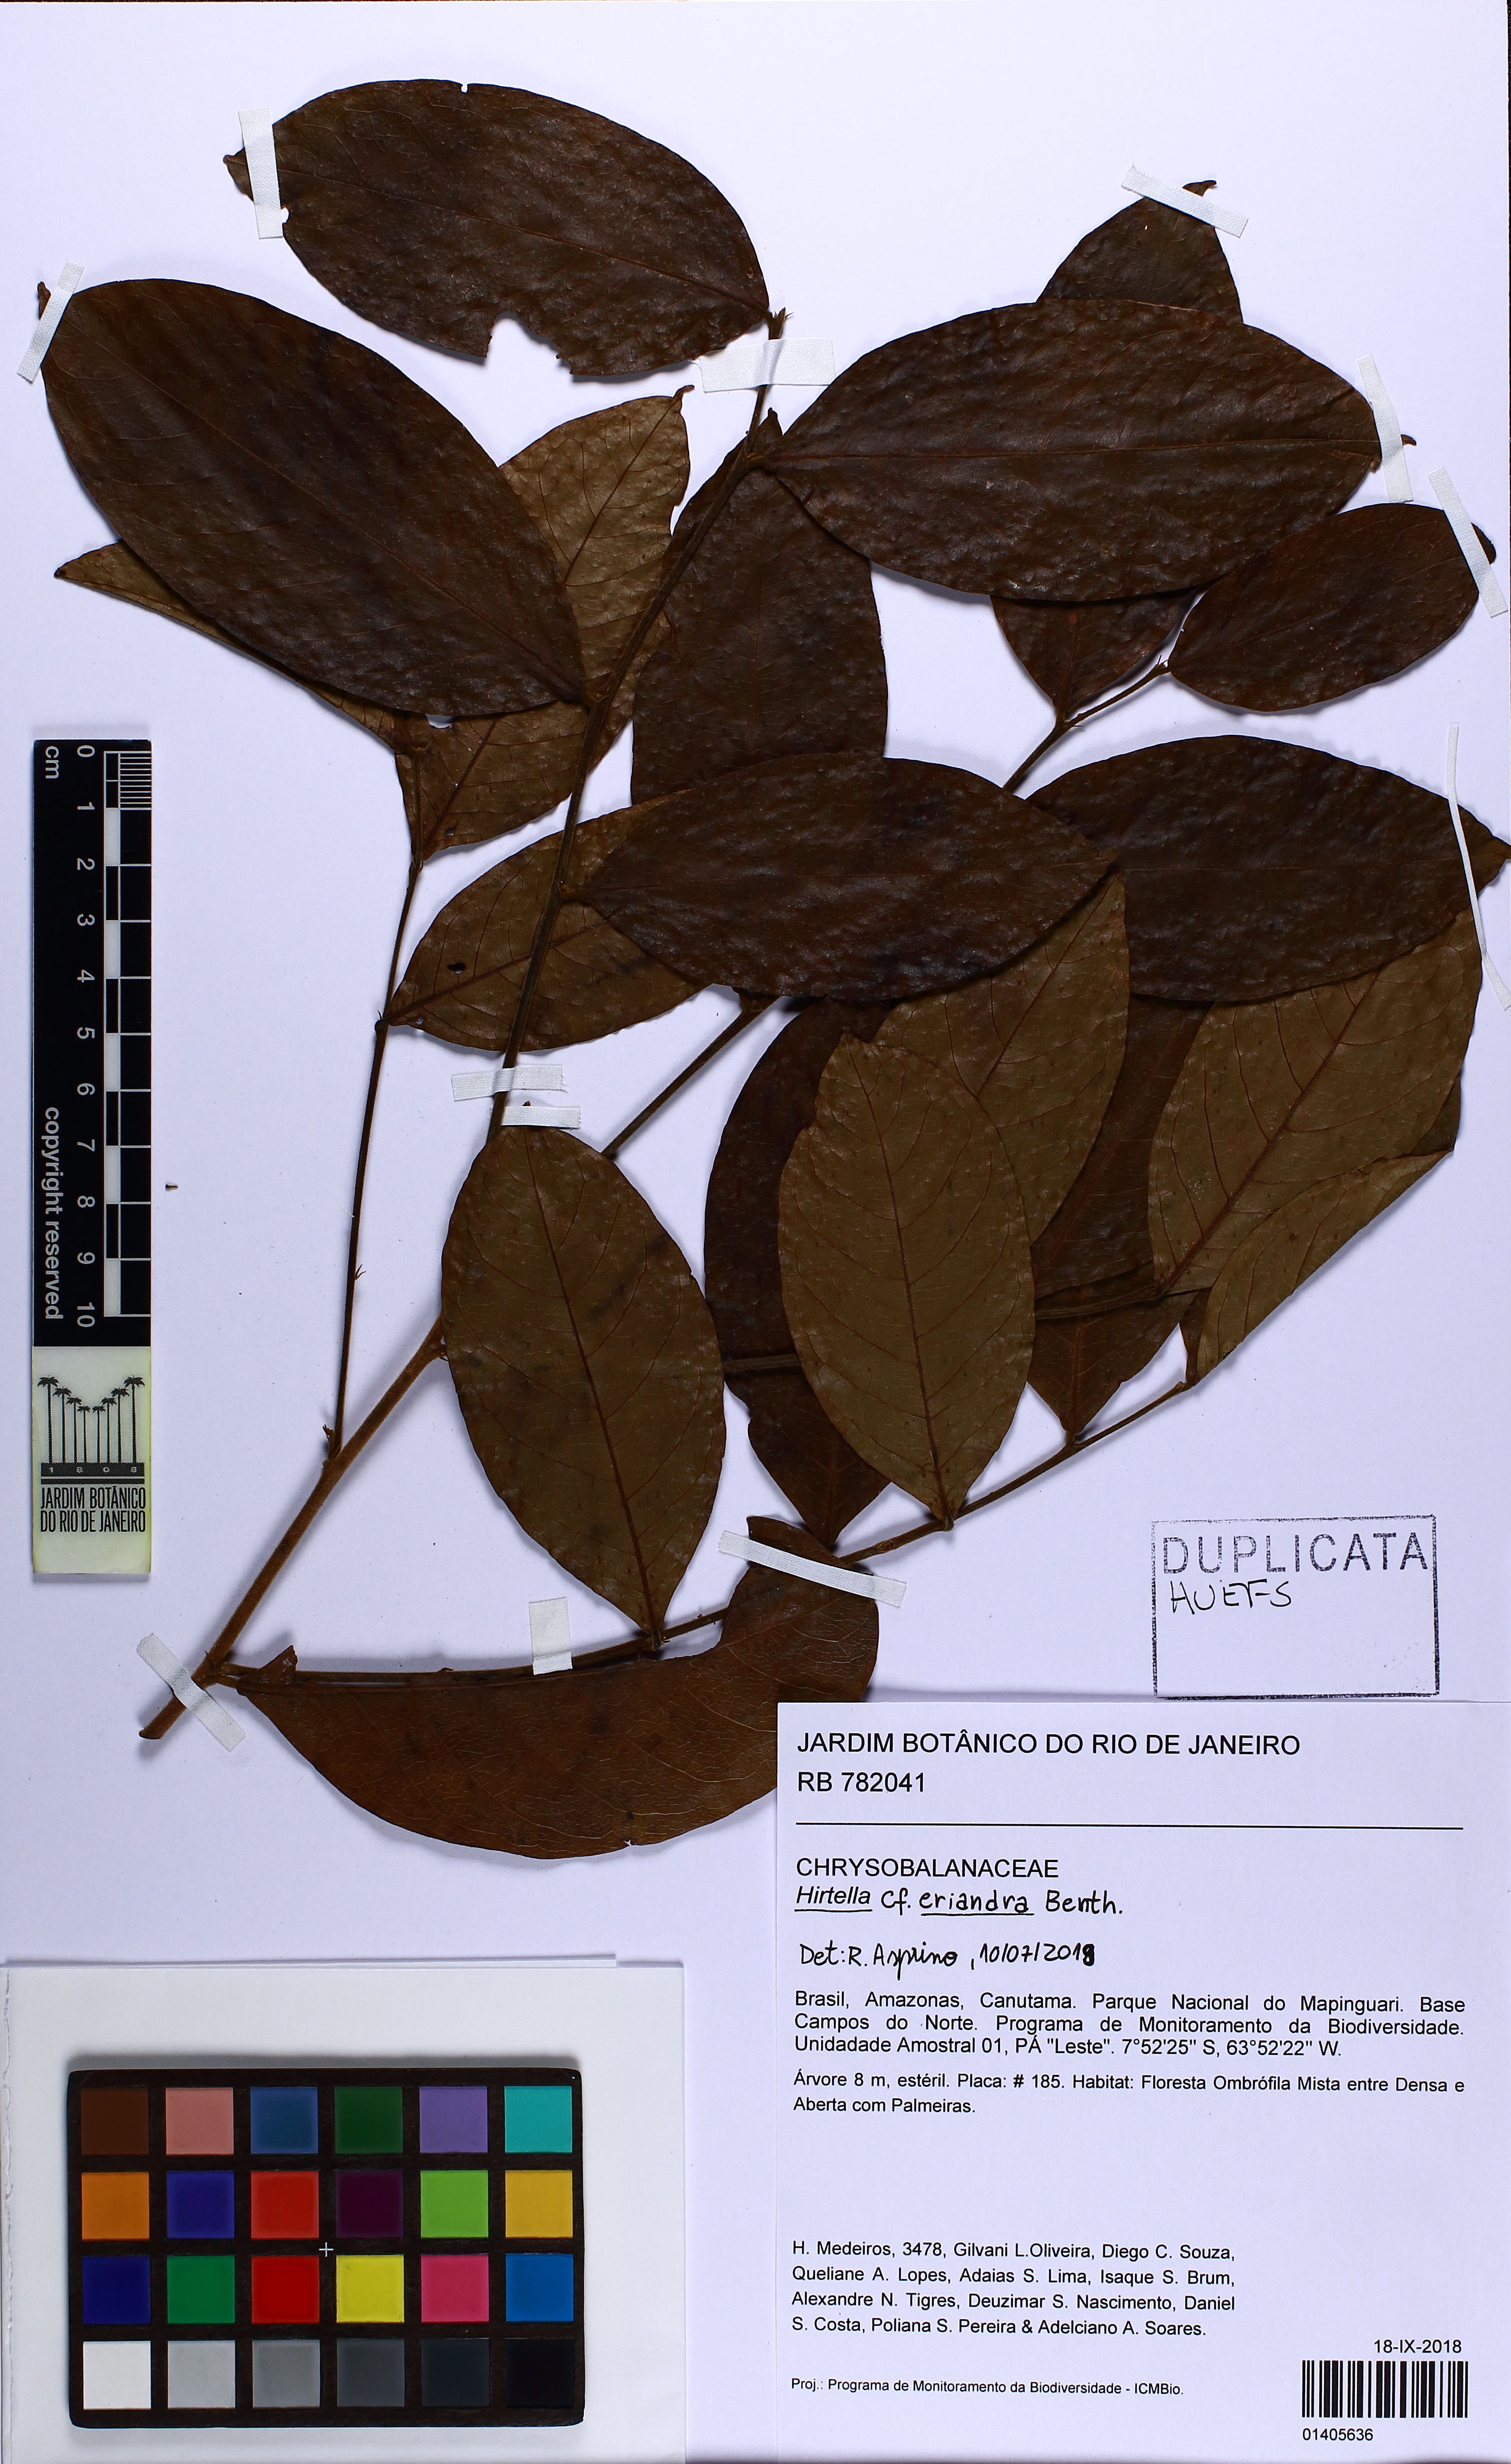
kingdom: Plantae
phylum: Tracheophyta
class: Magnoliopsida
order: Malpighiales
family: Chrysobalanaceae
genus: Hirtella
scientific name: Hirtella eriandra
